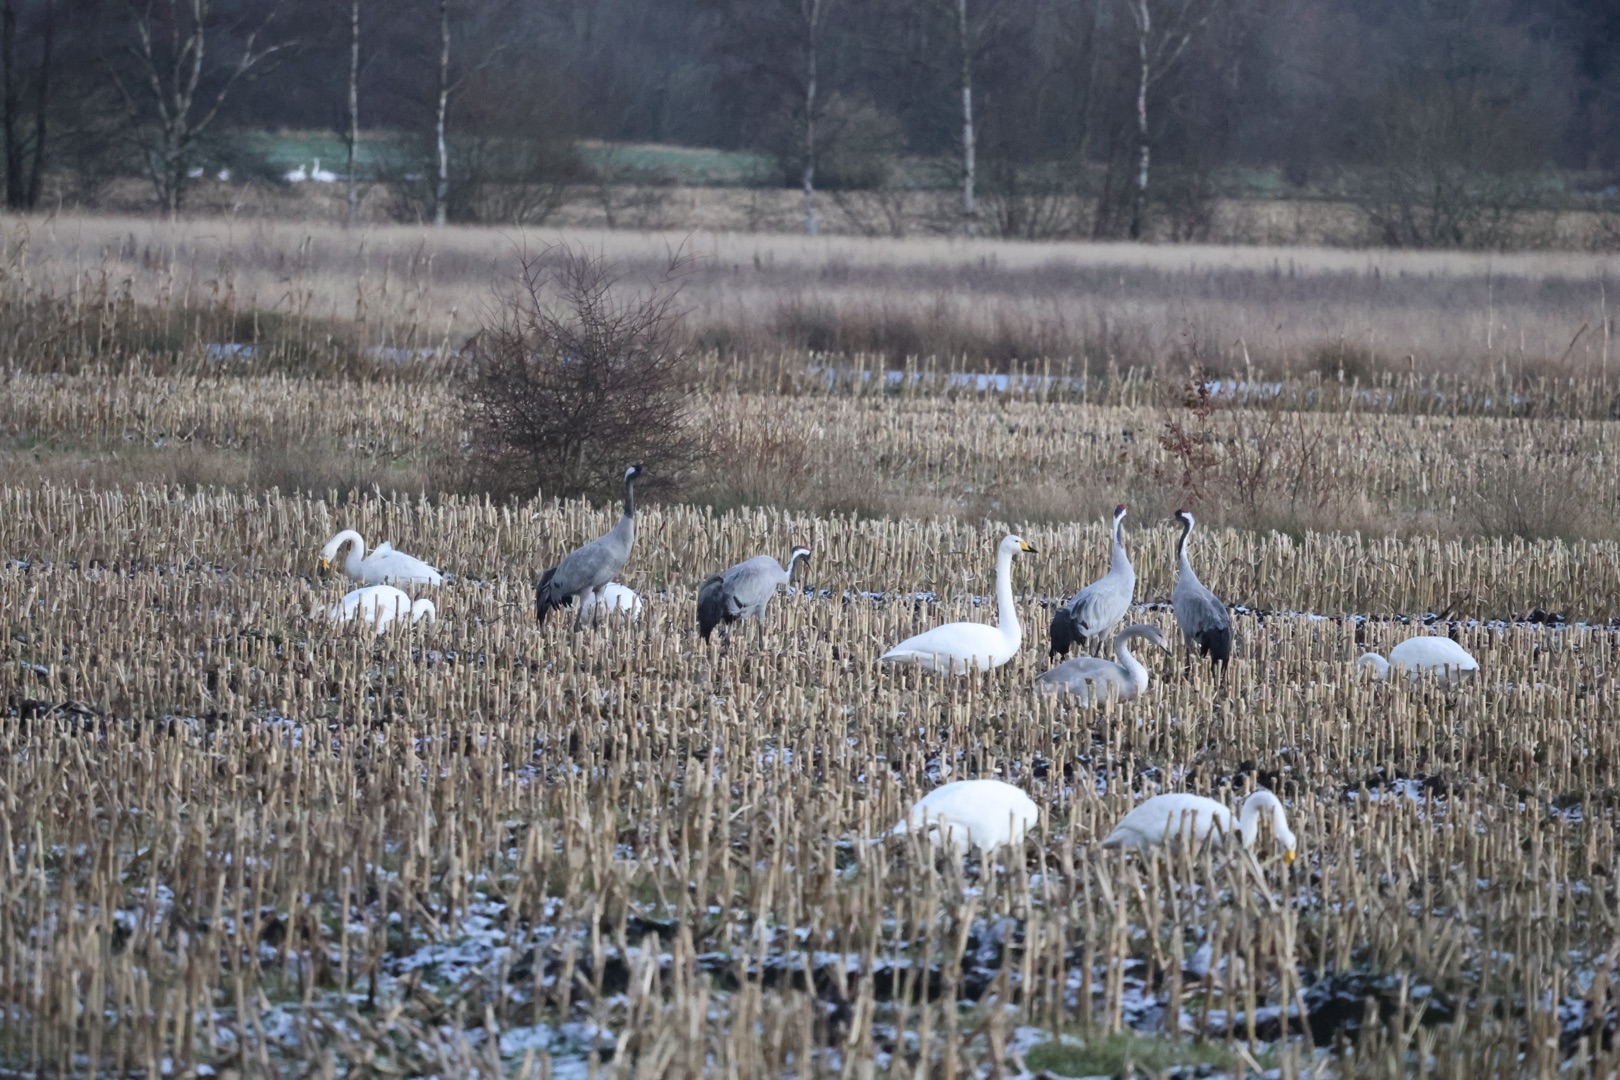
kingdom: Animalia
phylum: Chordata
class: Aves
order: Gruiformes
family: Gruidae
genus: Grus
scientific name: Grus grus
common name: Trane
